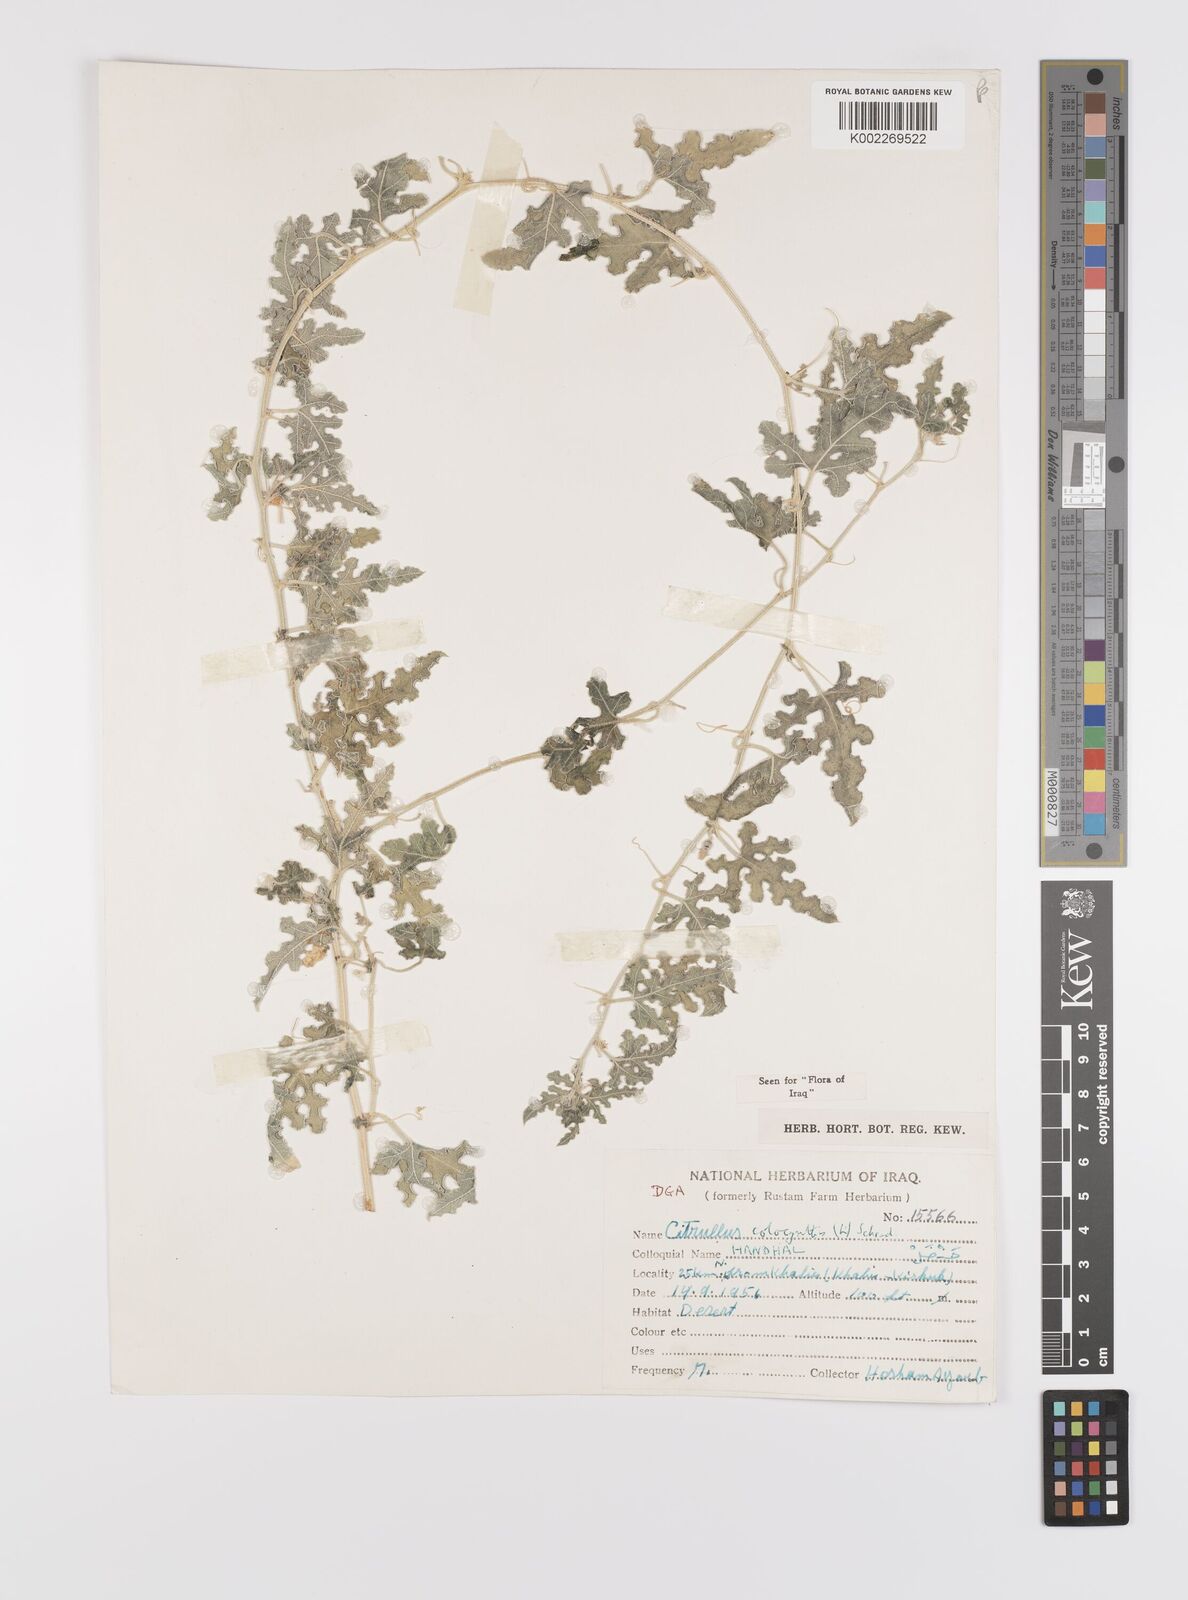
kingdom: Plantae
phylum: Tracheophyta
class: Magnoliopsida
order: Cucurbitales
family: Cucurbitaceae
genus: Citrullus
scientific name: Citrullus colocynthis
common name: Colocynth
